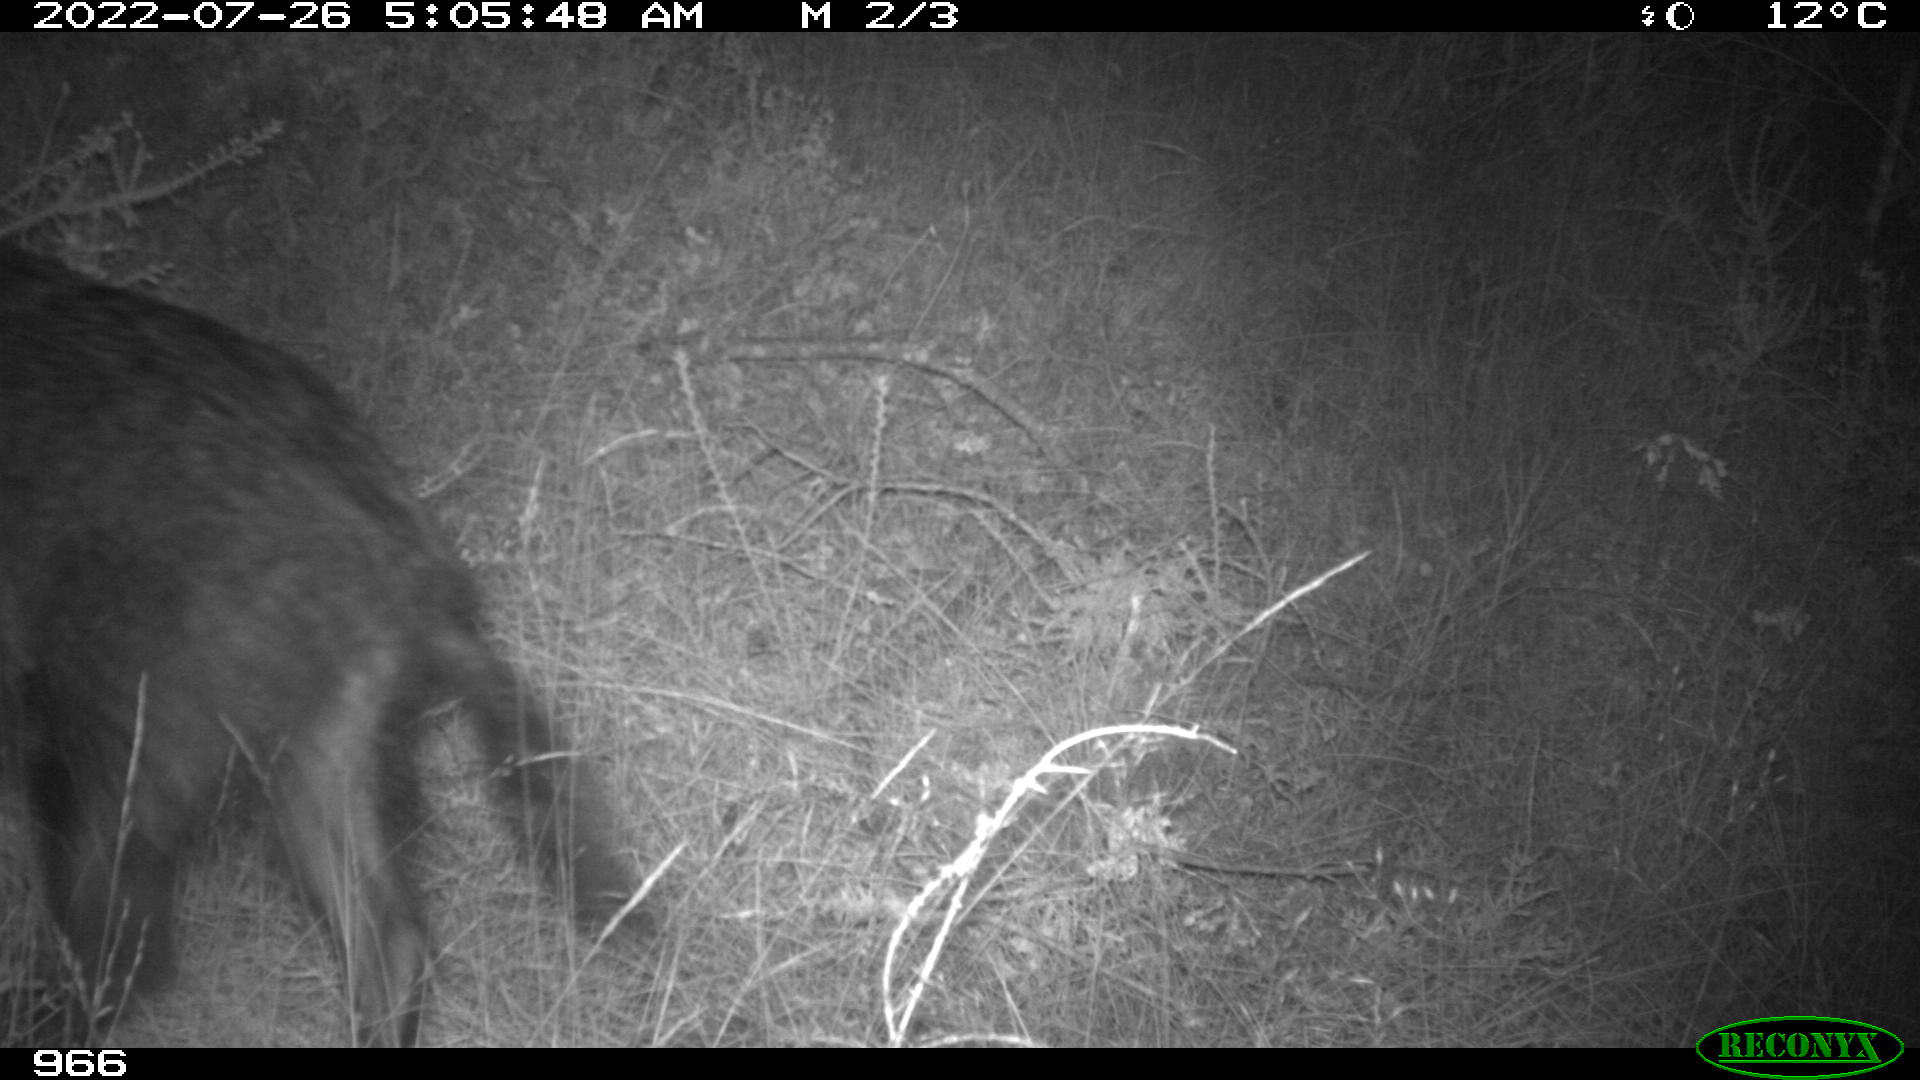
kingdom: Animalia
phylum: Chordata
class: Mammalia
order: Artiodactyla
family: Suidae
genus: Sus
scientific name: Sus scrofa
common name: Wild boar
